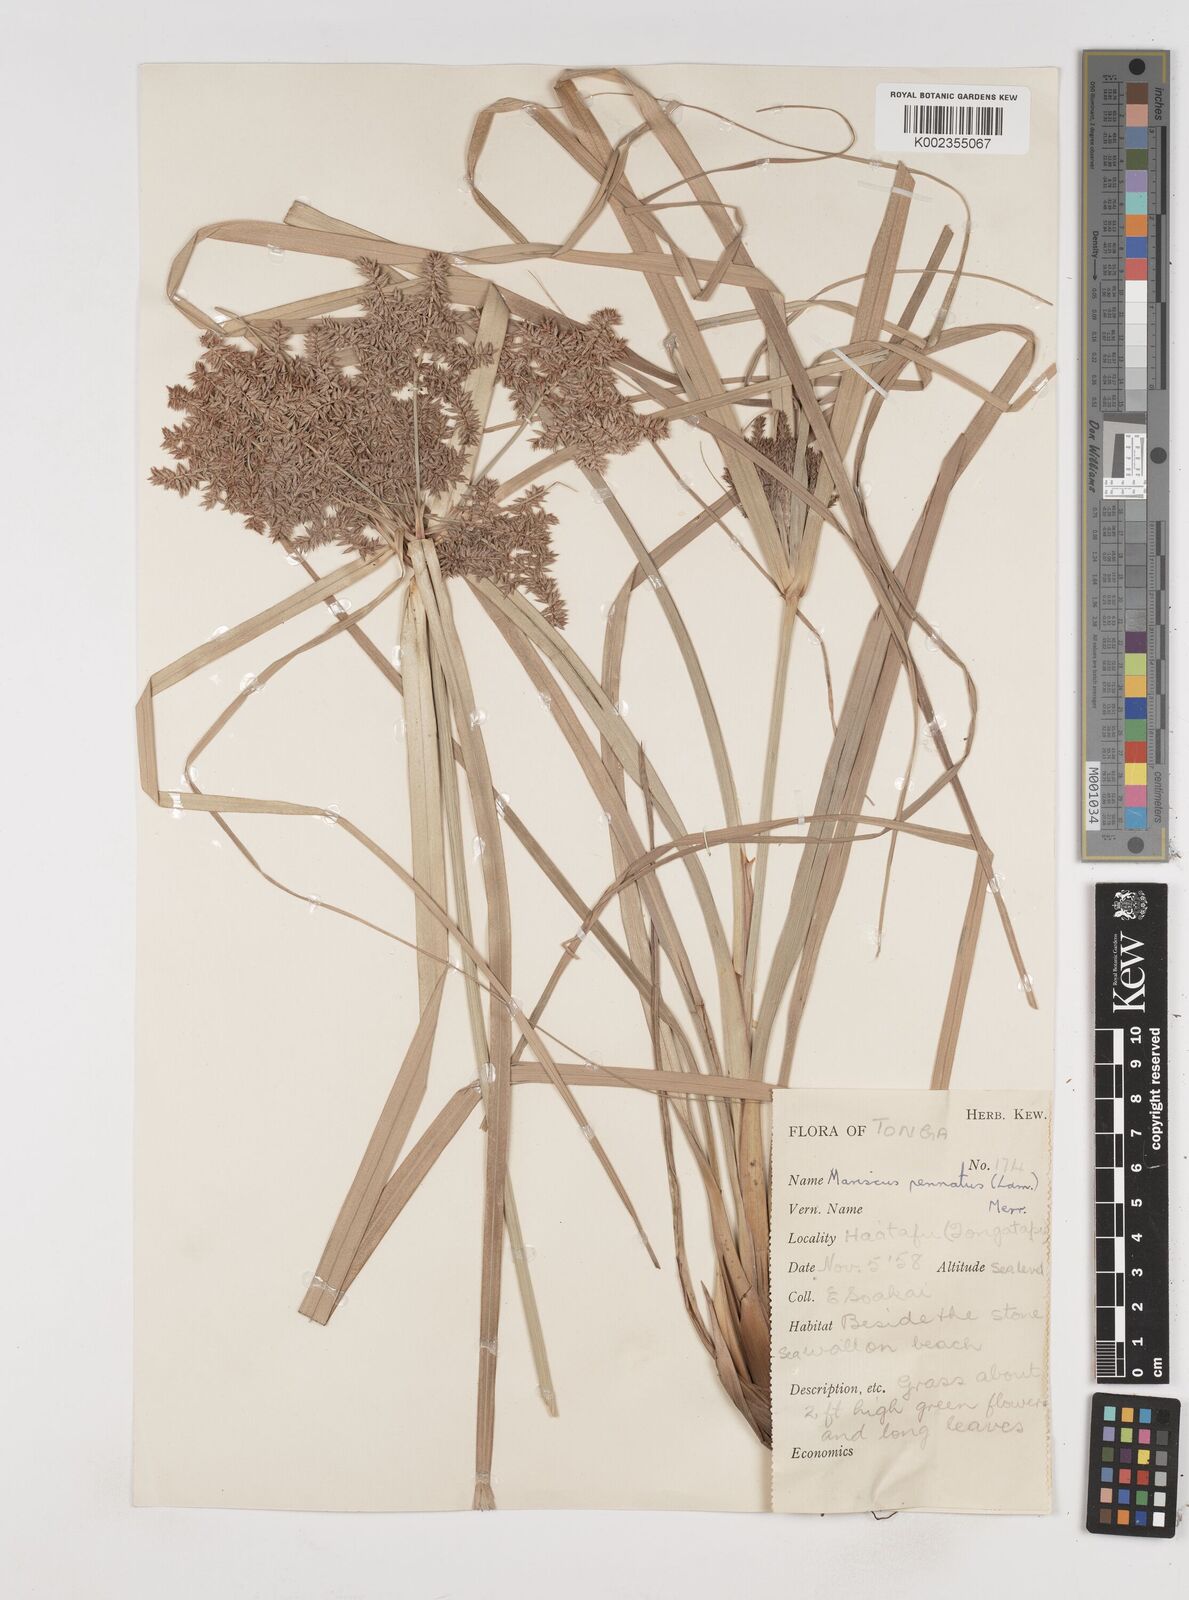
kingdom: Plantae
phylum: Tracheophyta
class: Liliopsida
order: Poales
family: Cyperaceae
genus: Cyperus
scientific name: Cyperus javanicus
